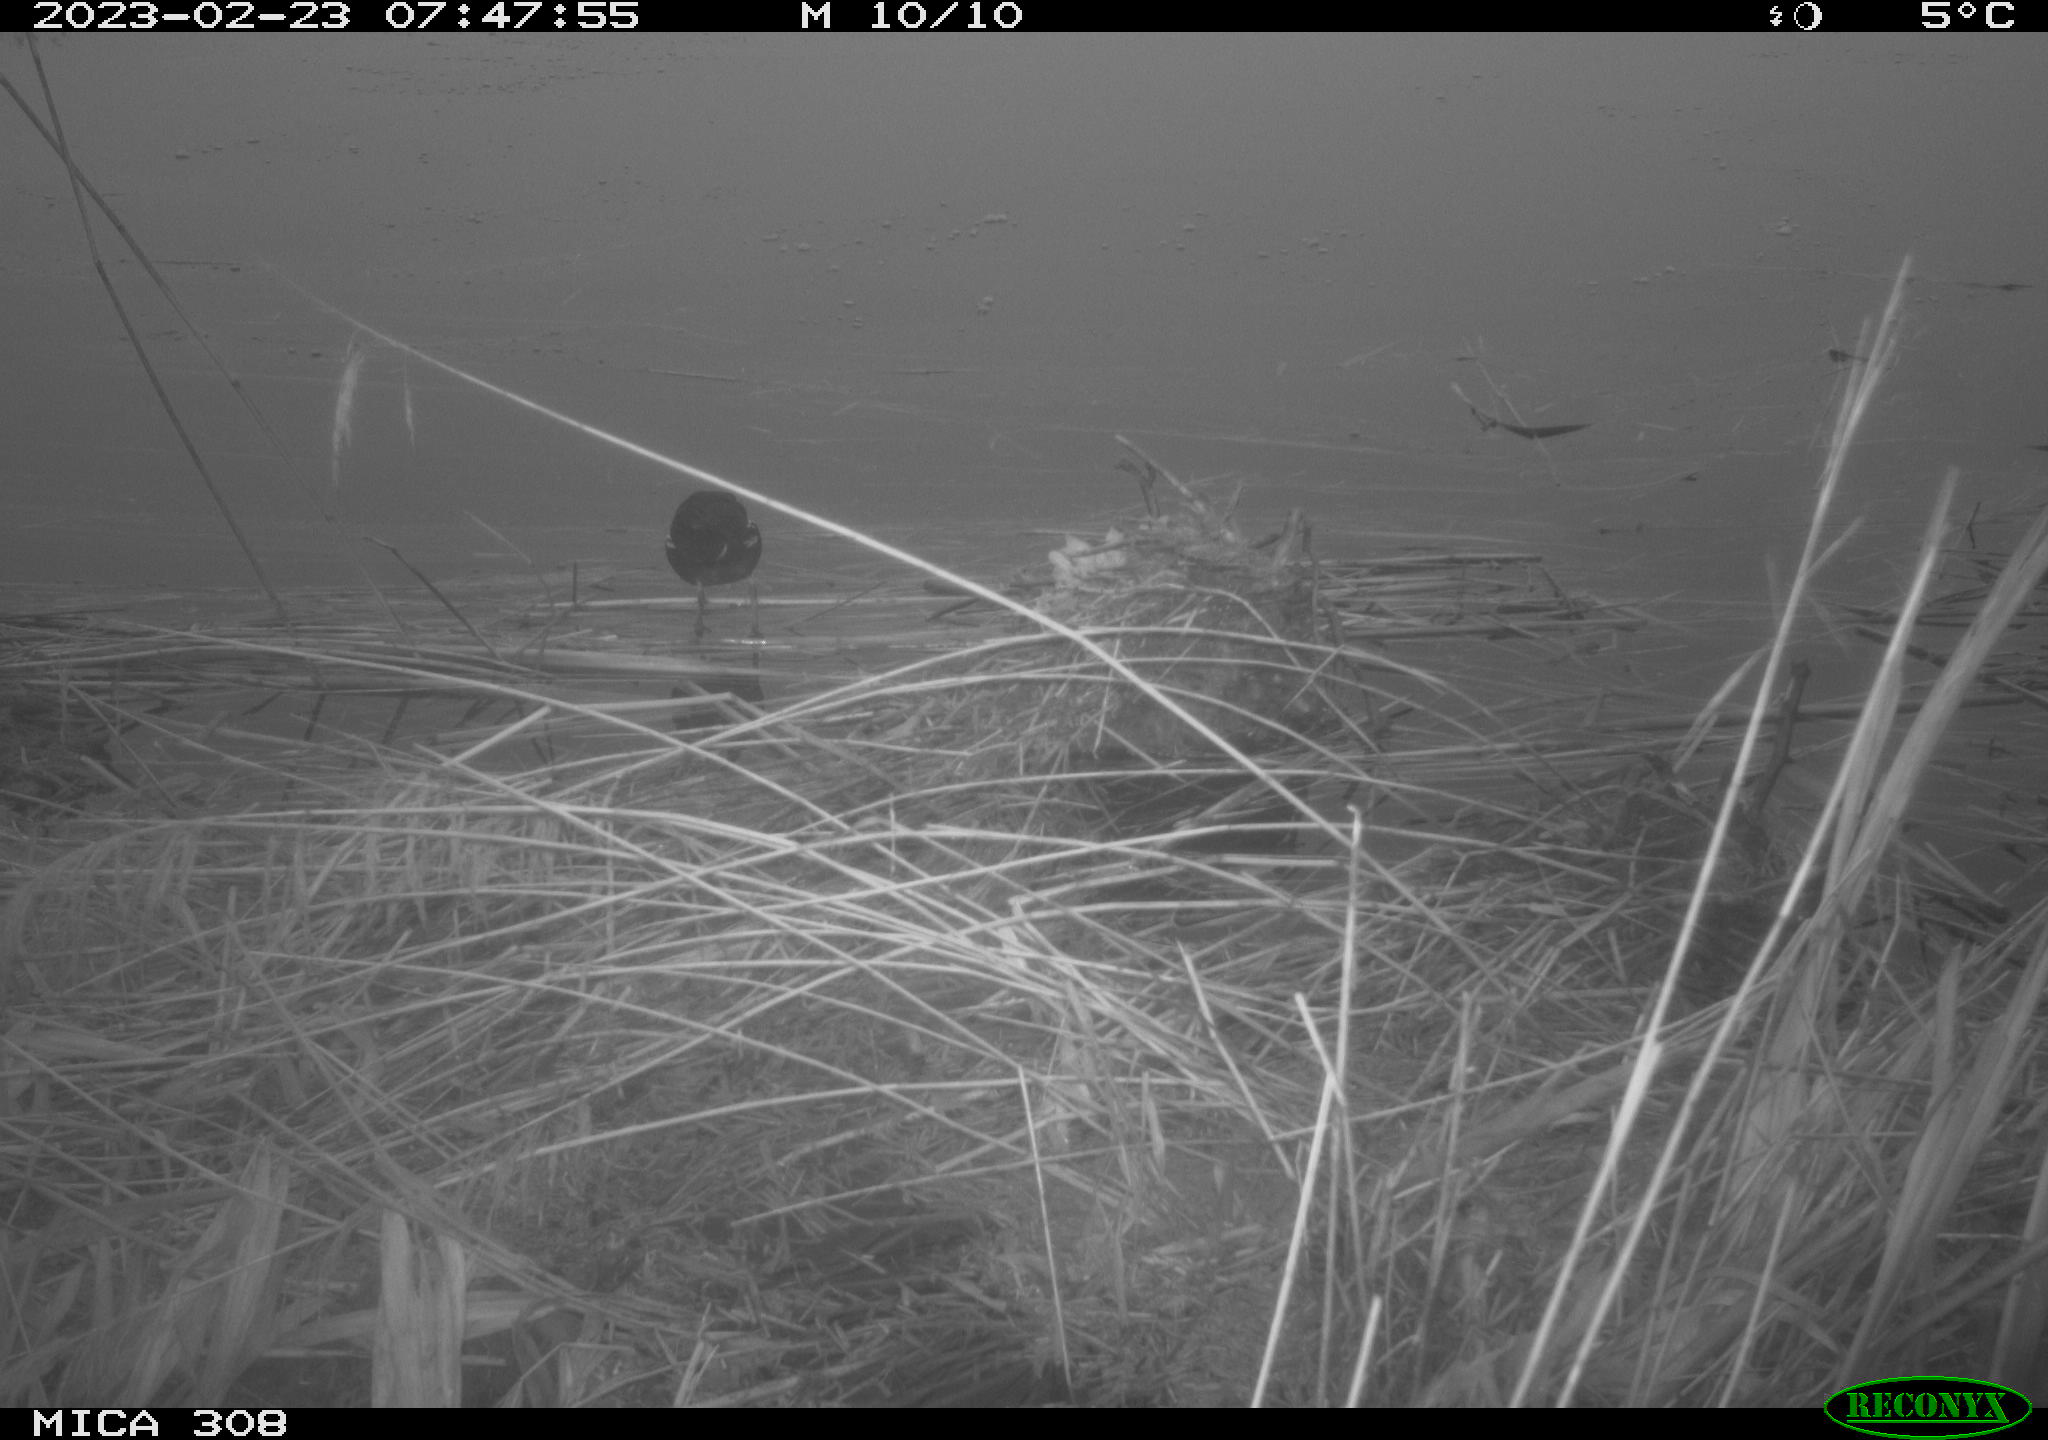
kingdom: Animalia
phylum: Chordata
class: Aves
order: Gruiformes
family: Rallidae
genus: Gallinula
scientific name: Gallinula chloropus
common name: Common moorhen
